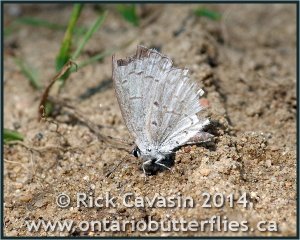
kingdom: Animalia
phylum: Arthropoda
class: Insecta
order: Lepidoptera
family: Lycaenidae
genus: Cyaniris
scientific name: Cyaniris neglecta
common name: Summer Azure
